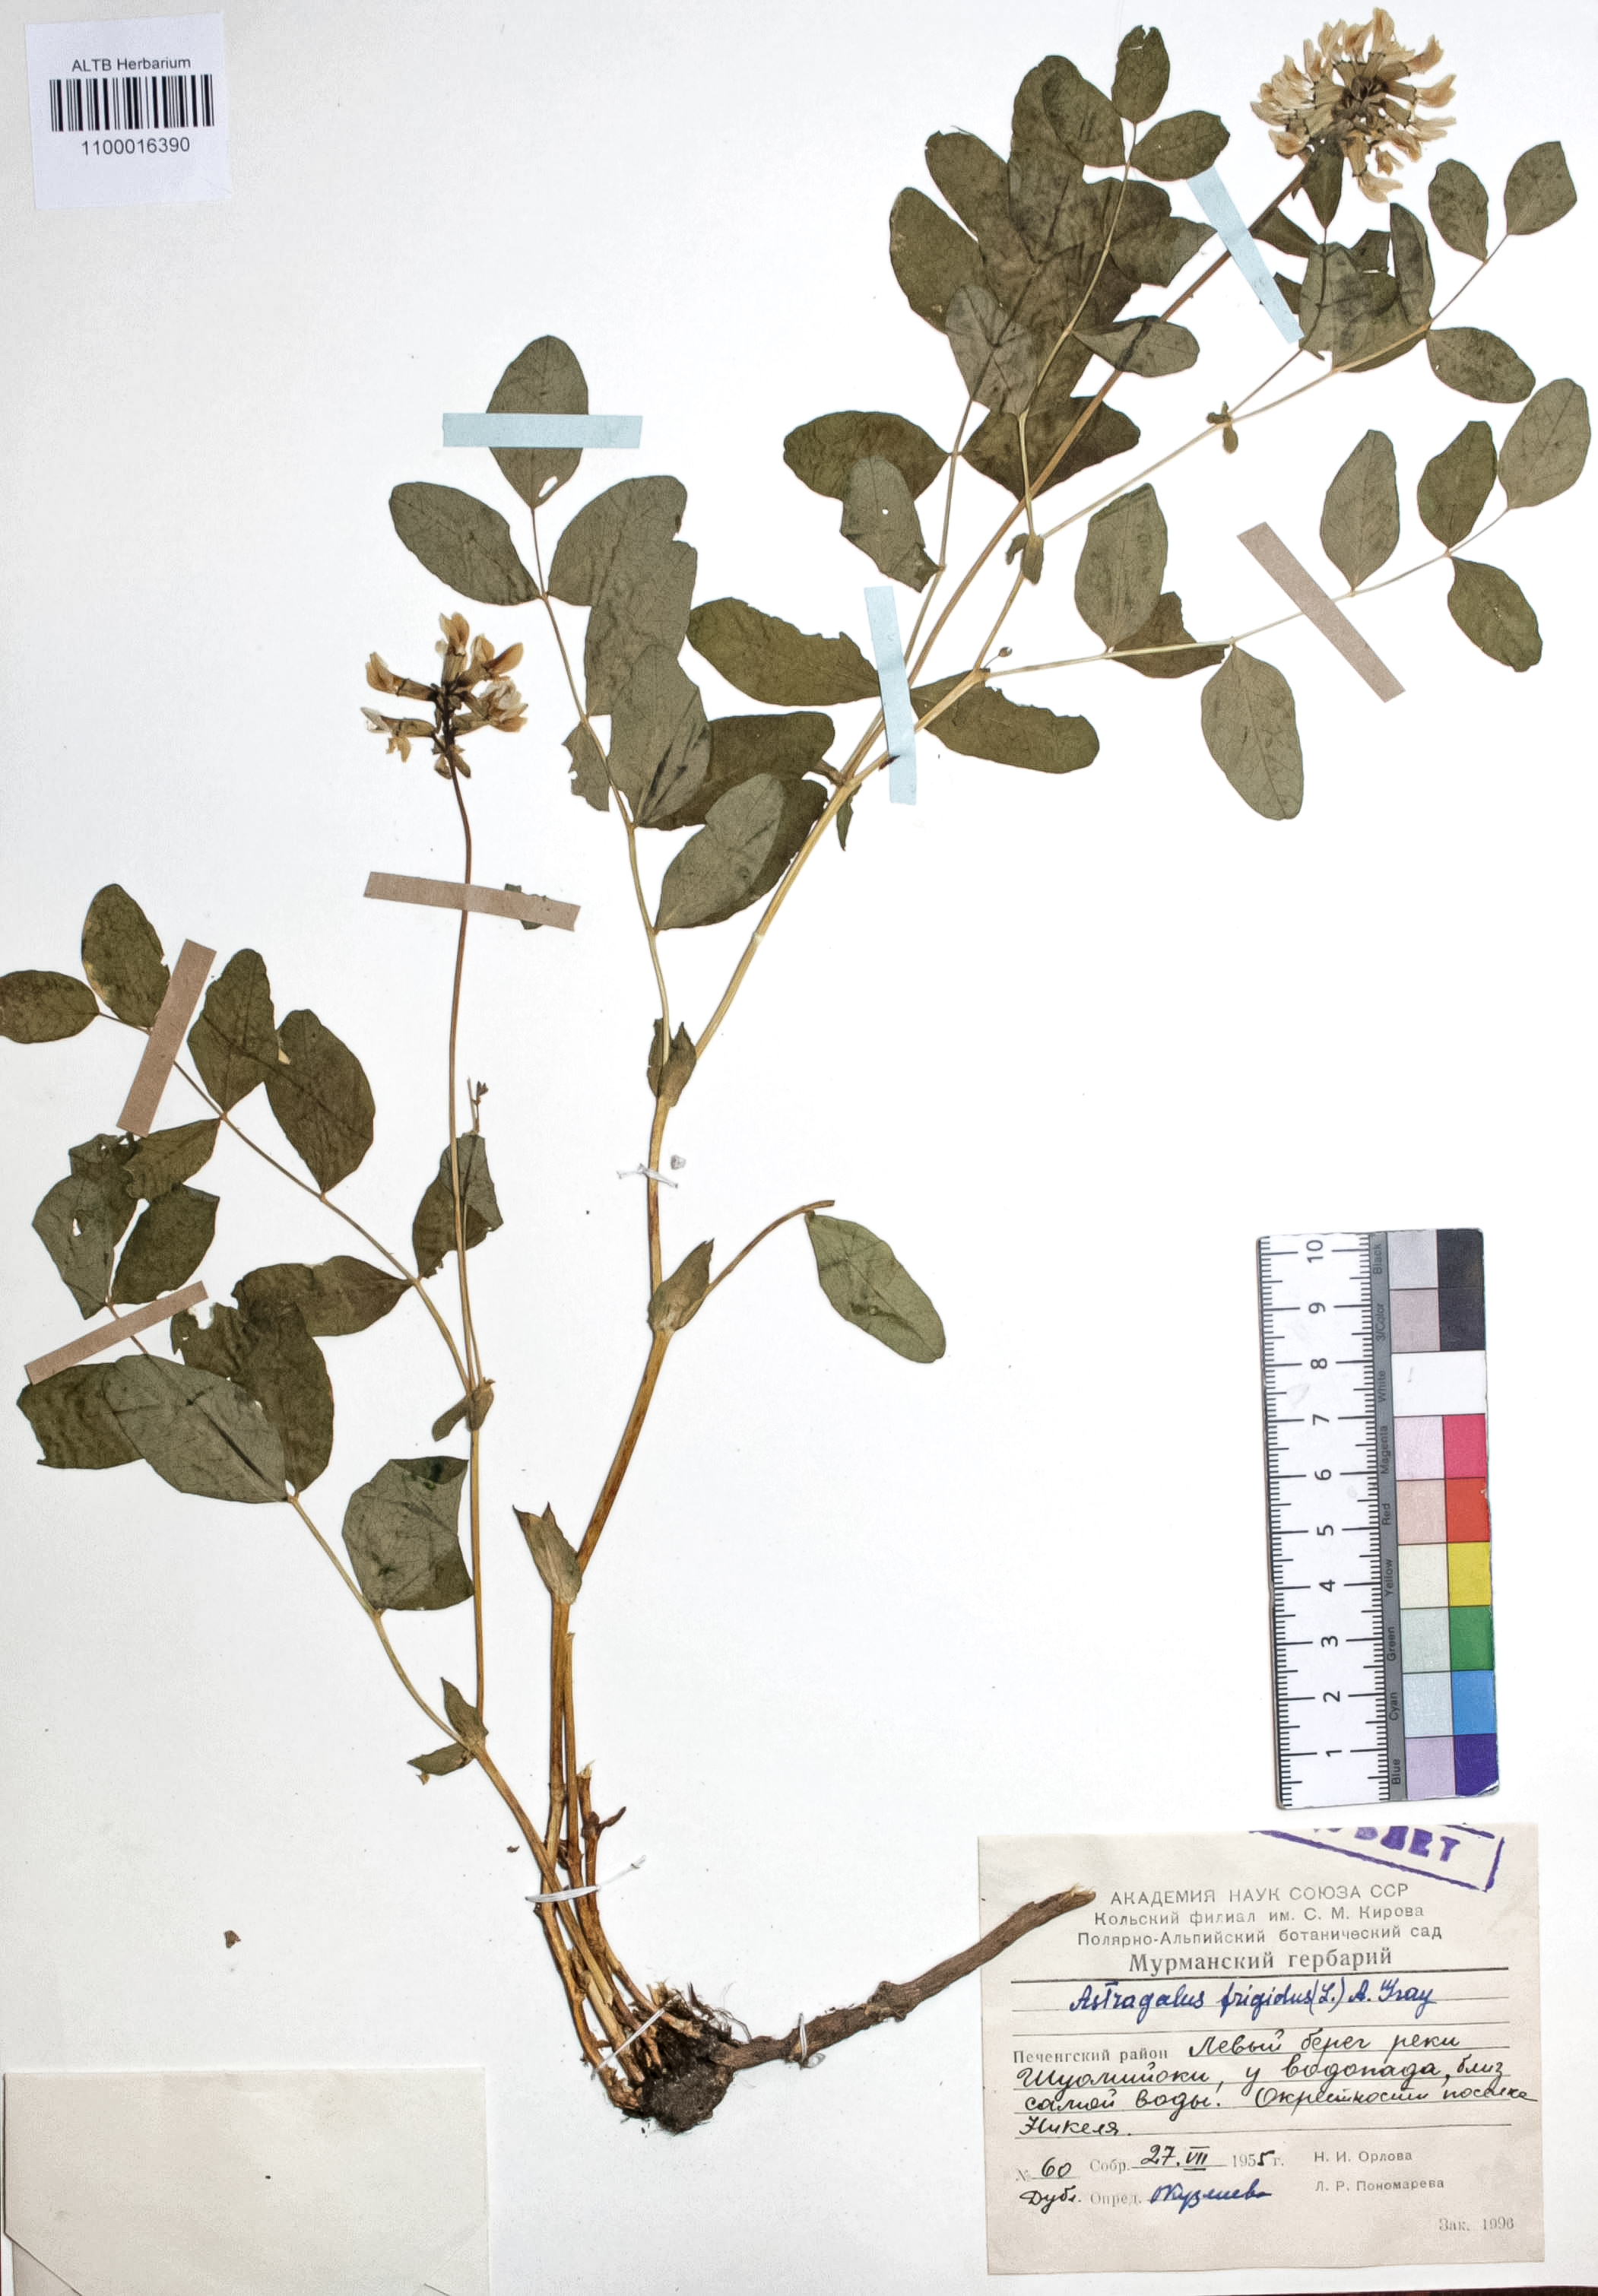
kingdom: Plantae
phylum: Tracheophyta
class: Magnoliopsida
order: Fabales
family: Fabaceae
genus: Astragalus
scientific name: Astragalus frigidus
